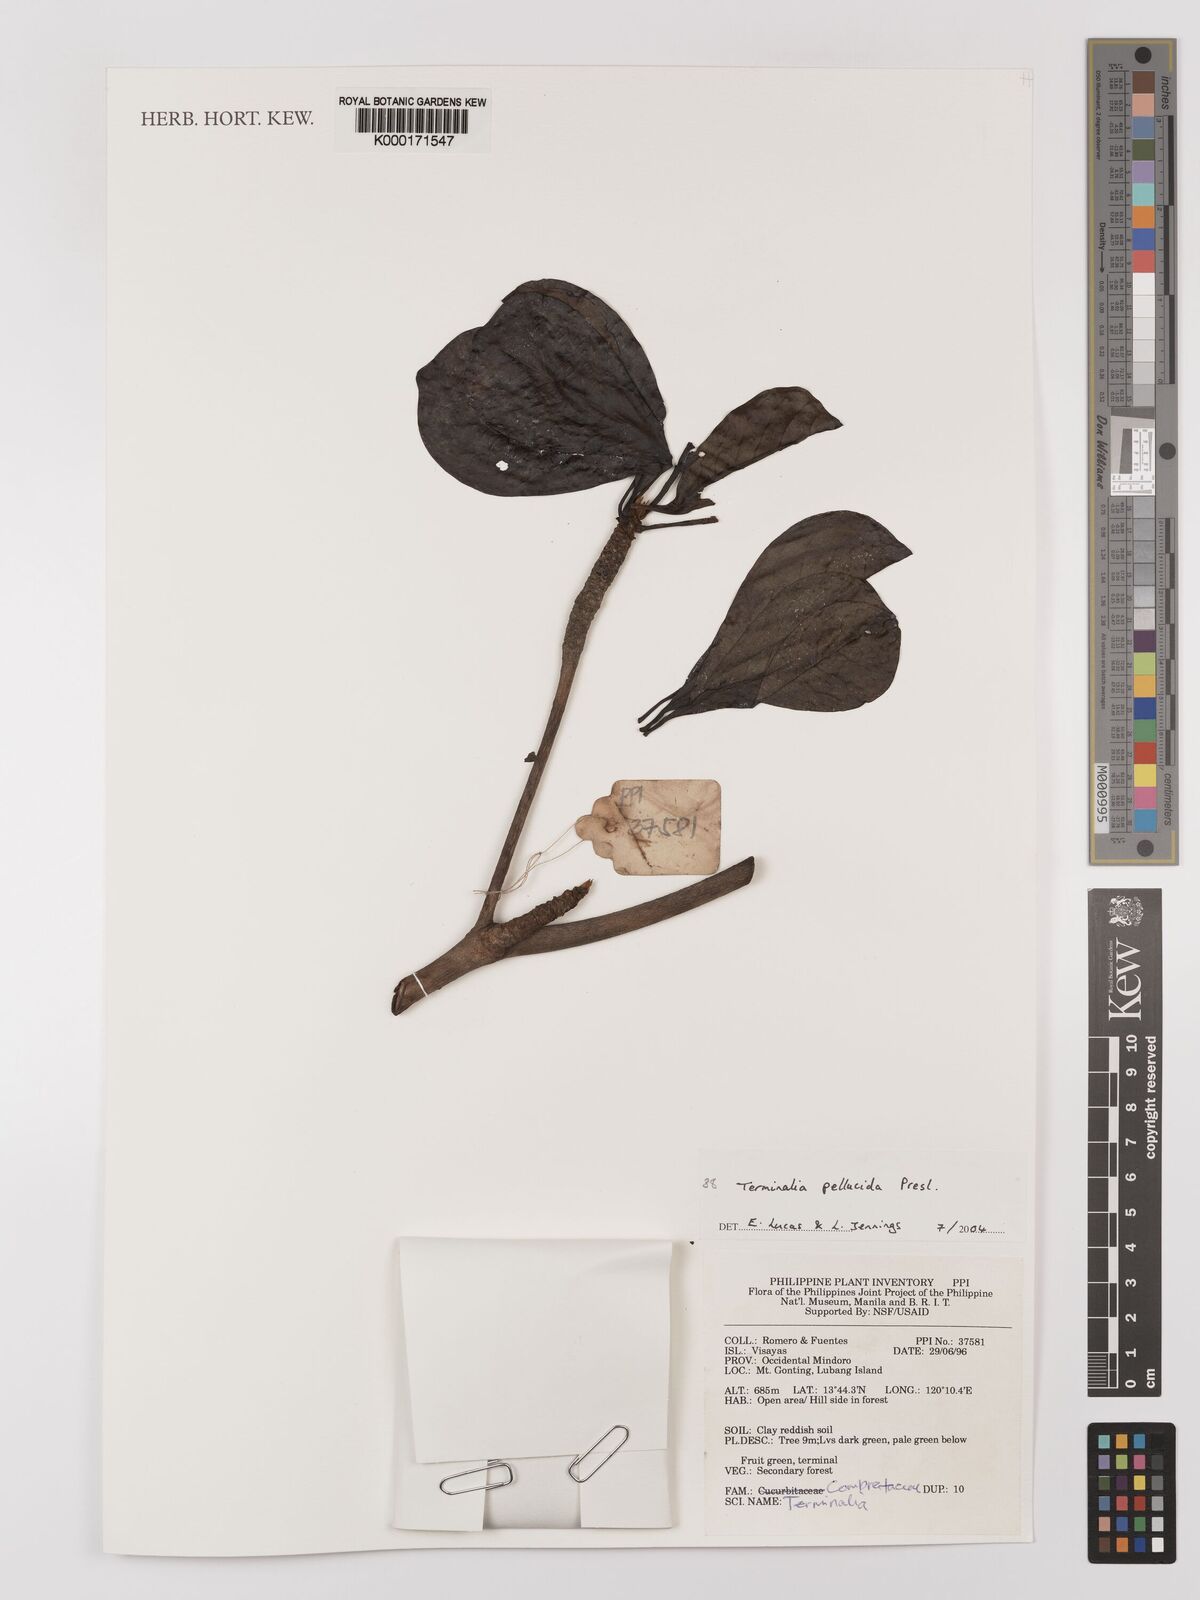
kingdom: Plantae
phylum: Tracheophyta
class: Magnoliopsida
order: Myrtales
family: Combretaceae
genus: Terminalia
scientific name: Terminalia pellucida
